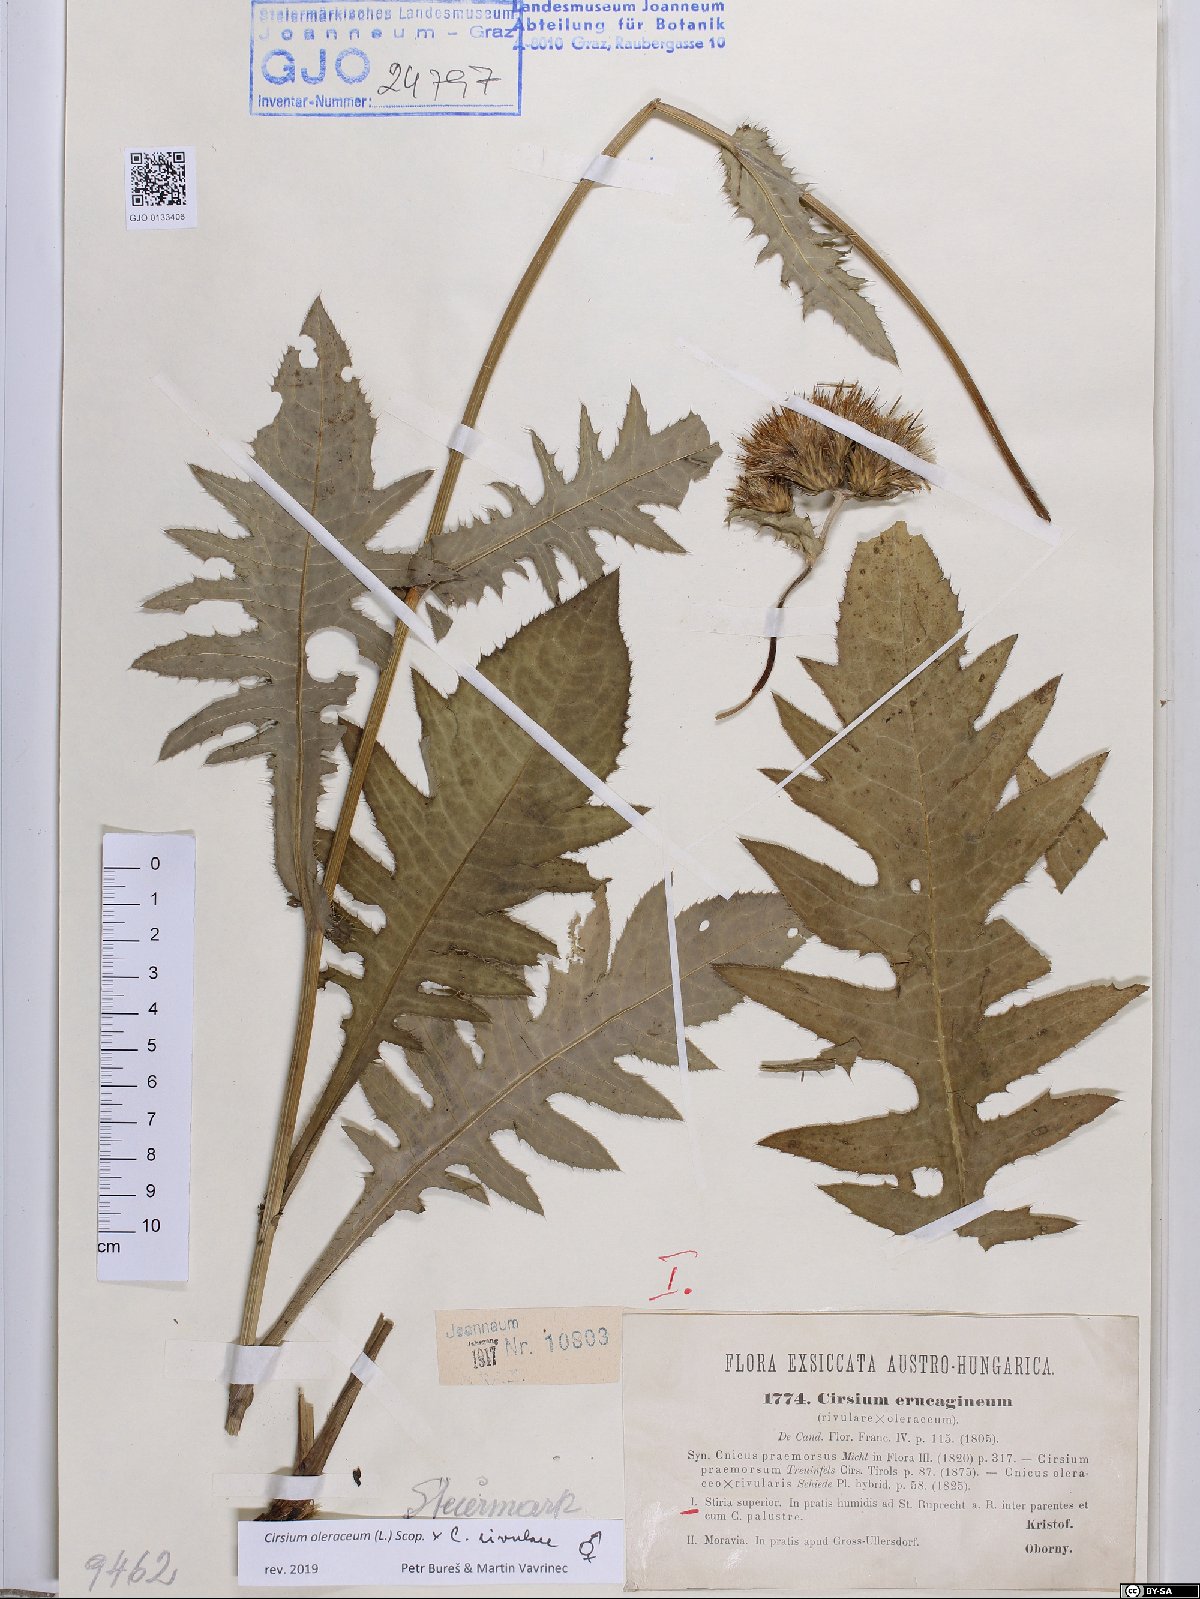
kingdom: Plantae
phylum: Tracheophyta
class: Magnoliopsida
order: Asterales
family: Asteraceae
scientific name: Asteraceae
